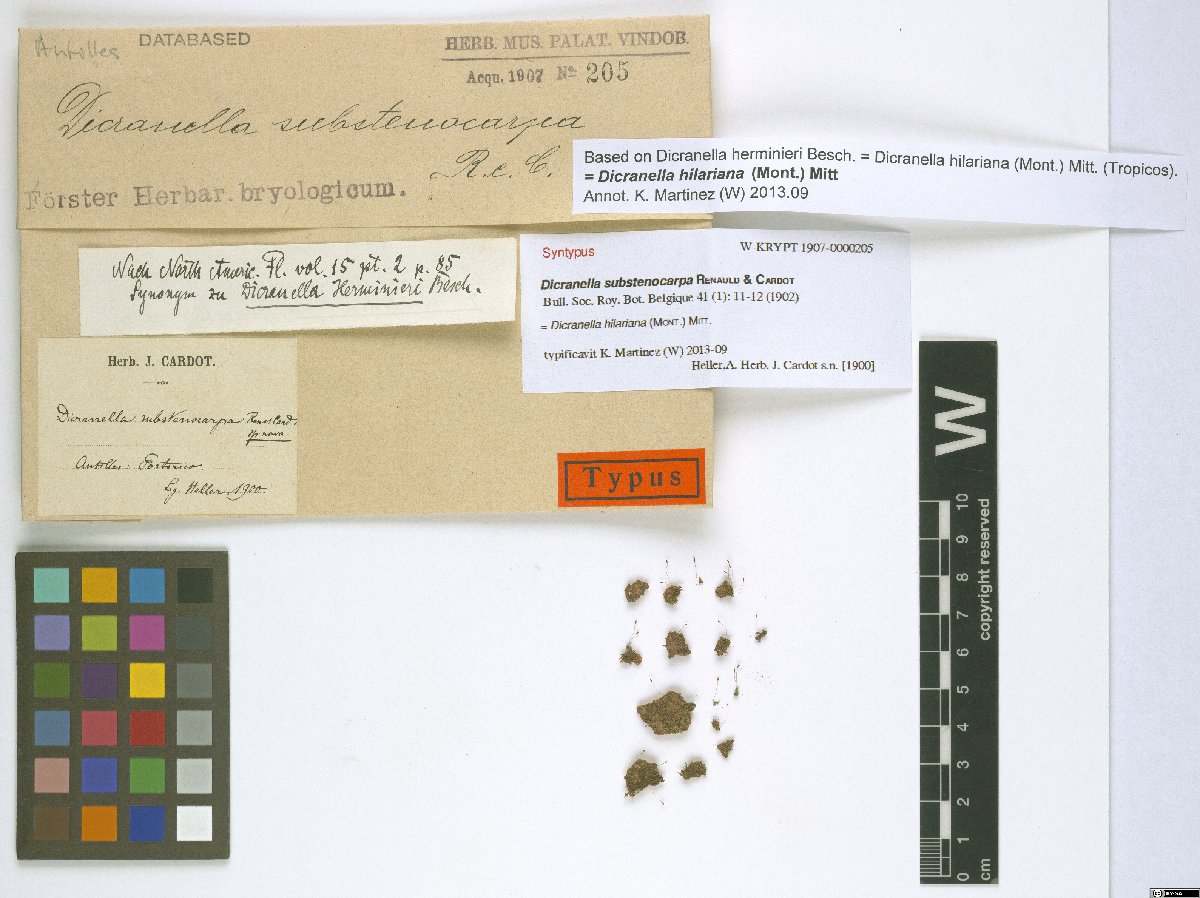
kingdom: Plantae
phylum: Bryophyta
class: Bryopsida
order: Dicranales
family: Dicranellaceae
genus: Dicranella
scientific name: Dicranella hilariana
